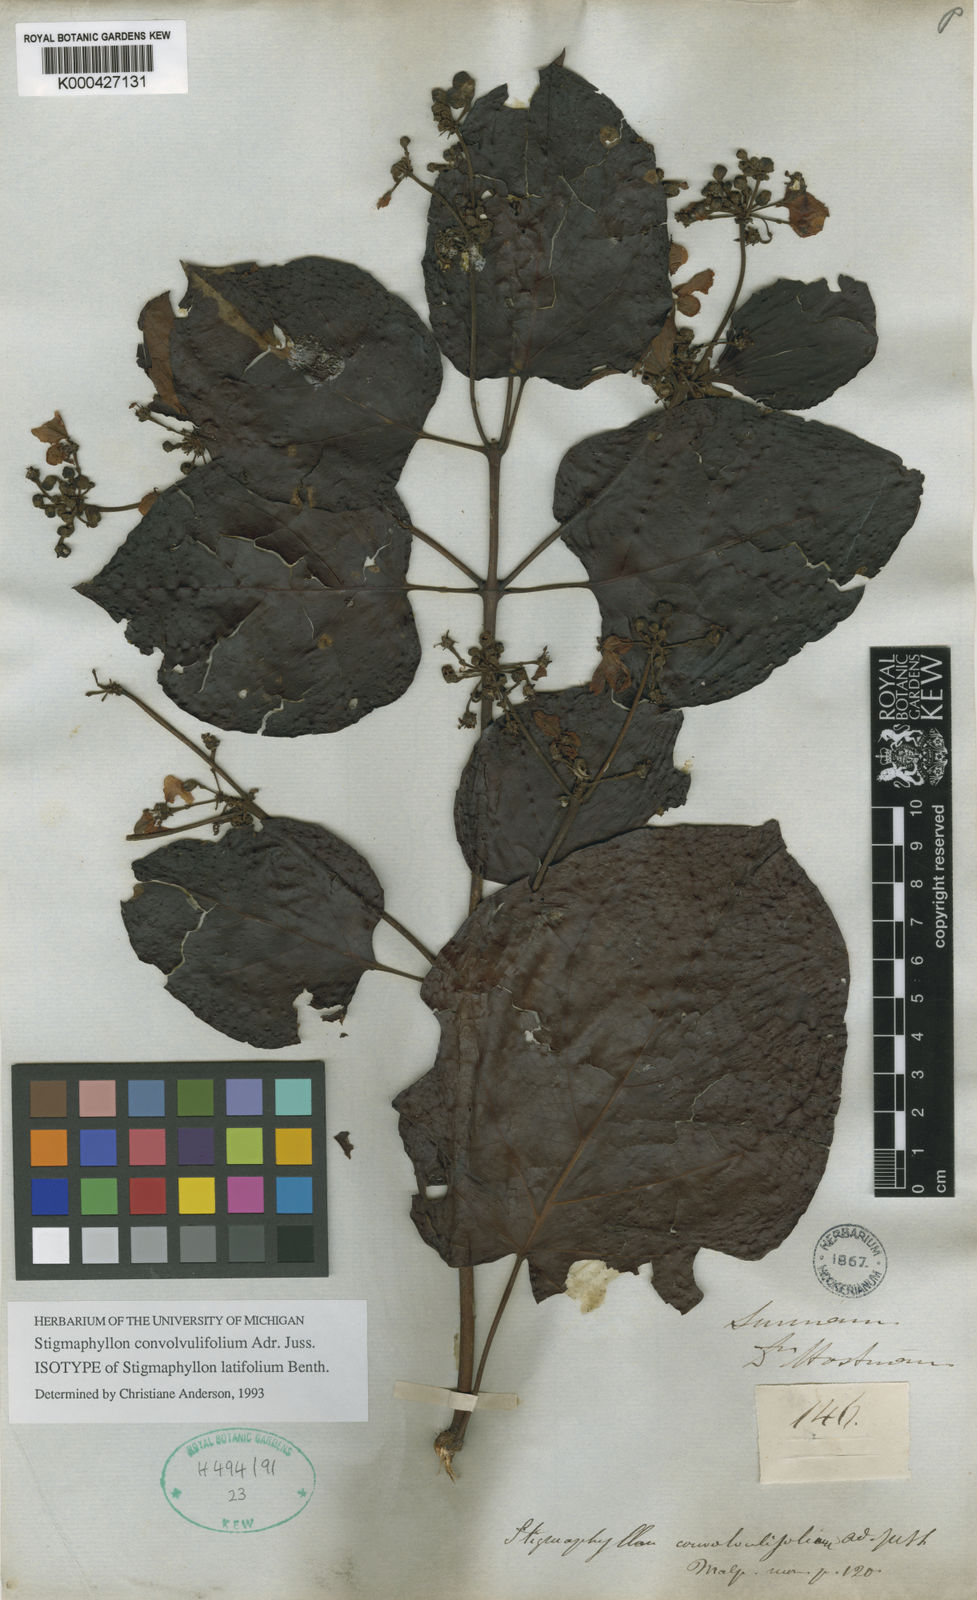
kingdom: Plantae
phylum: Tracheophyta
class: Magnoliopsida
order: Malpighiales
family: Malpighiaceae
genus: Stigmaphyllon
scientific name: Stigmaphyllon convolvulifolium
